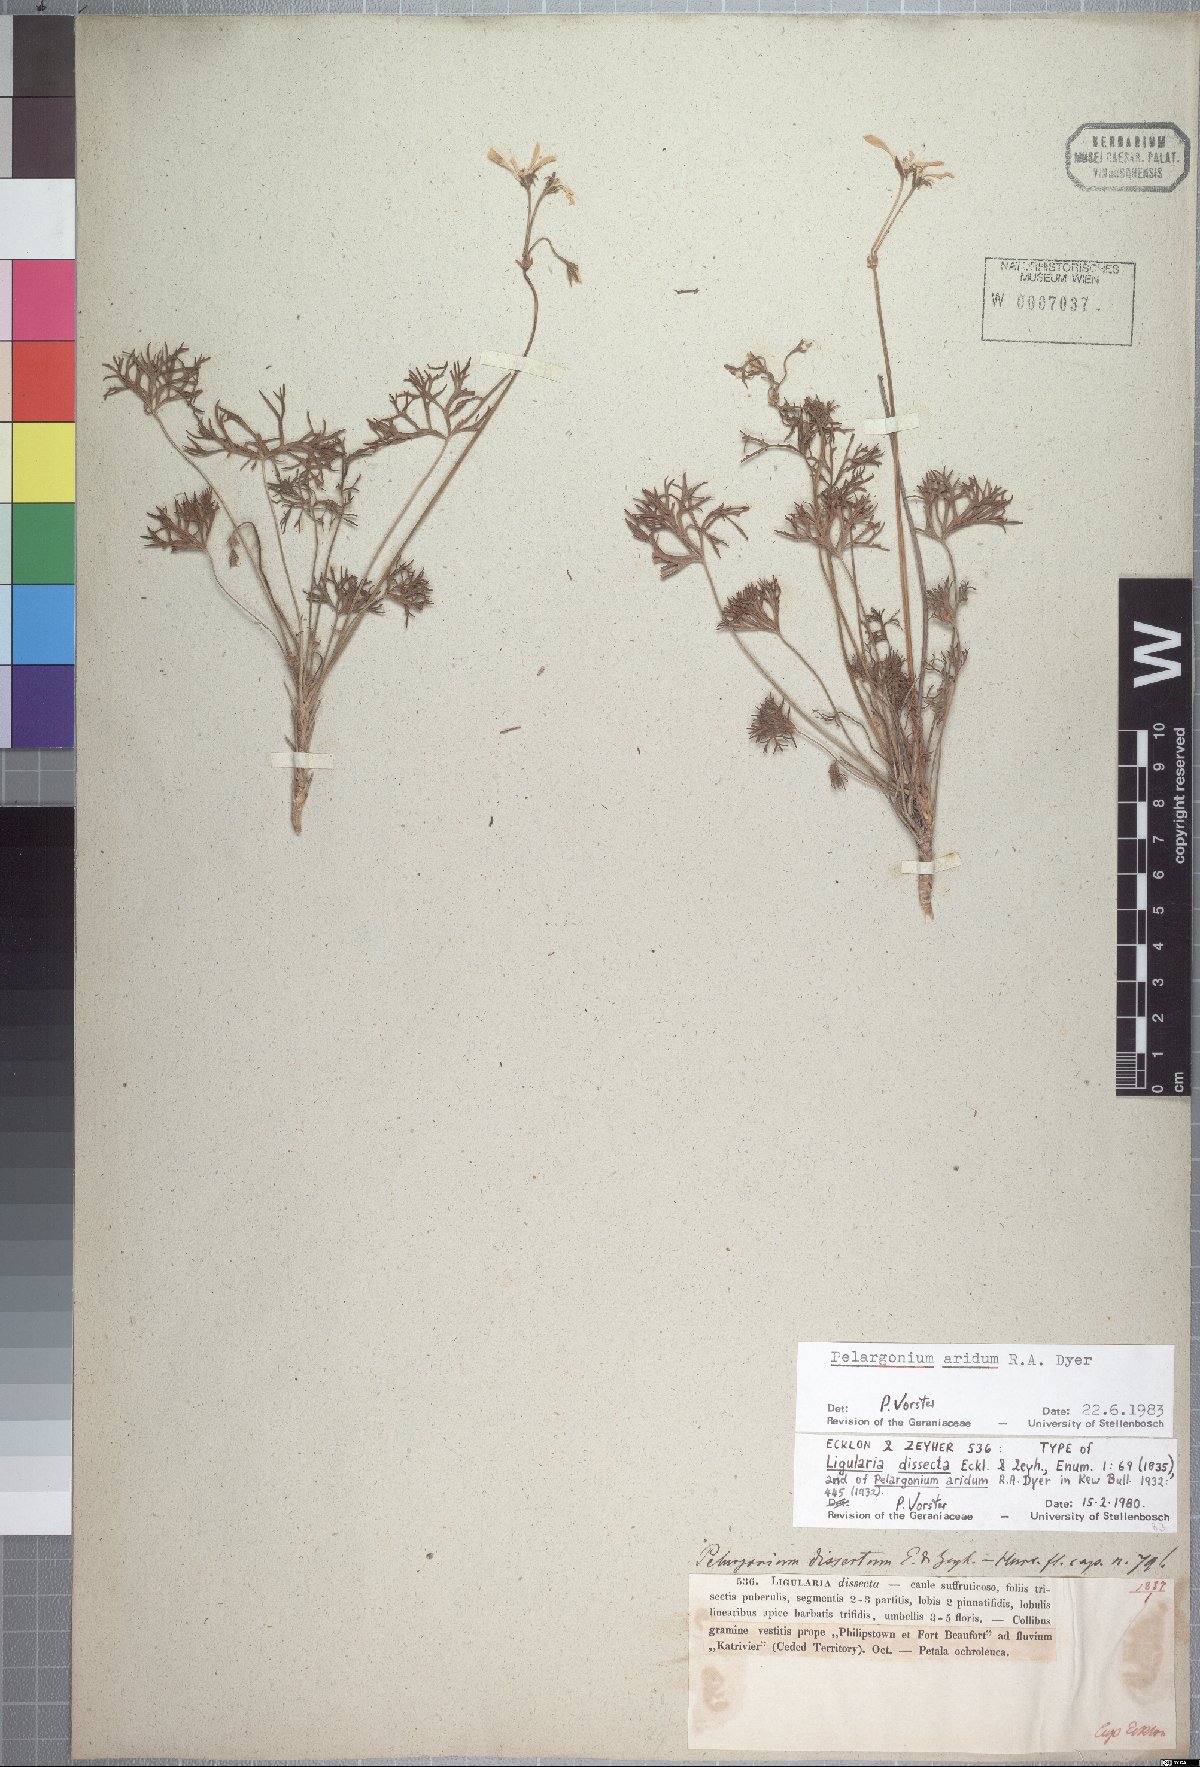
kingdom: Plantae
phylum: Tracheophyta
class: Magnoliopsida
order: Geraniales
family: Geraniaceae
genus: Pelargonium
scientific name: Pelargonium aridum
